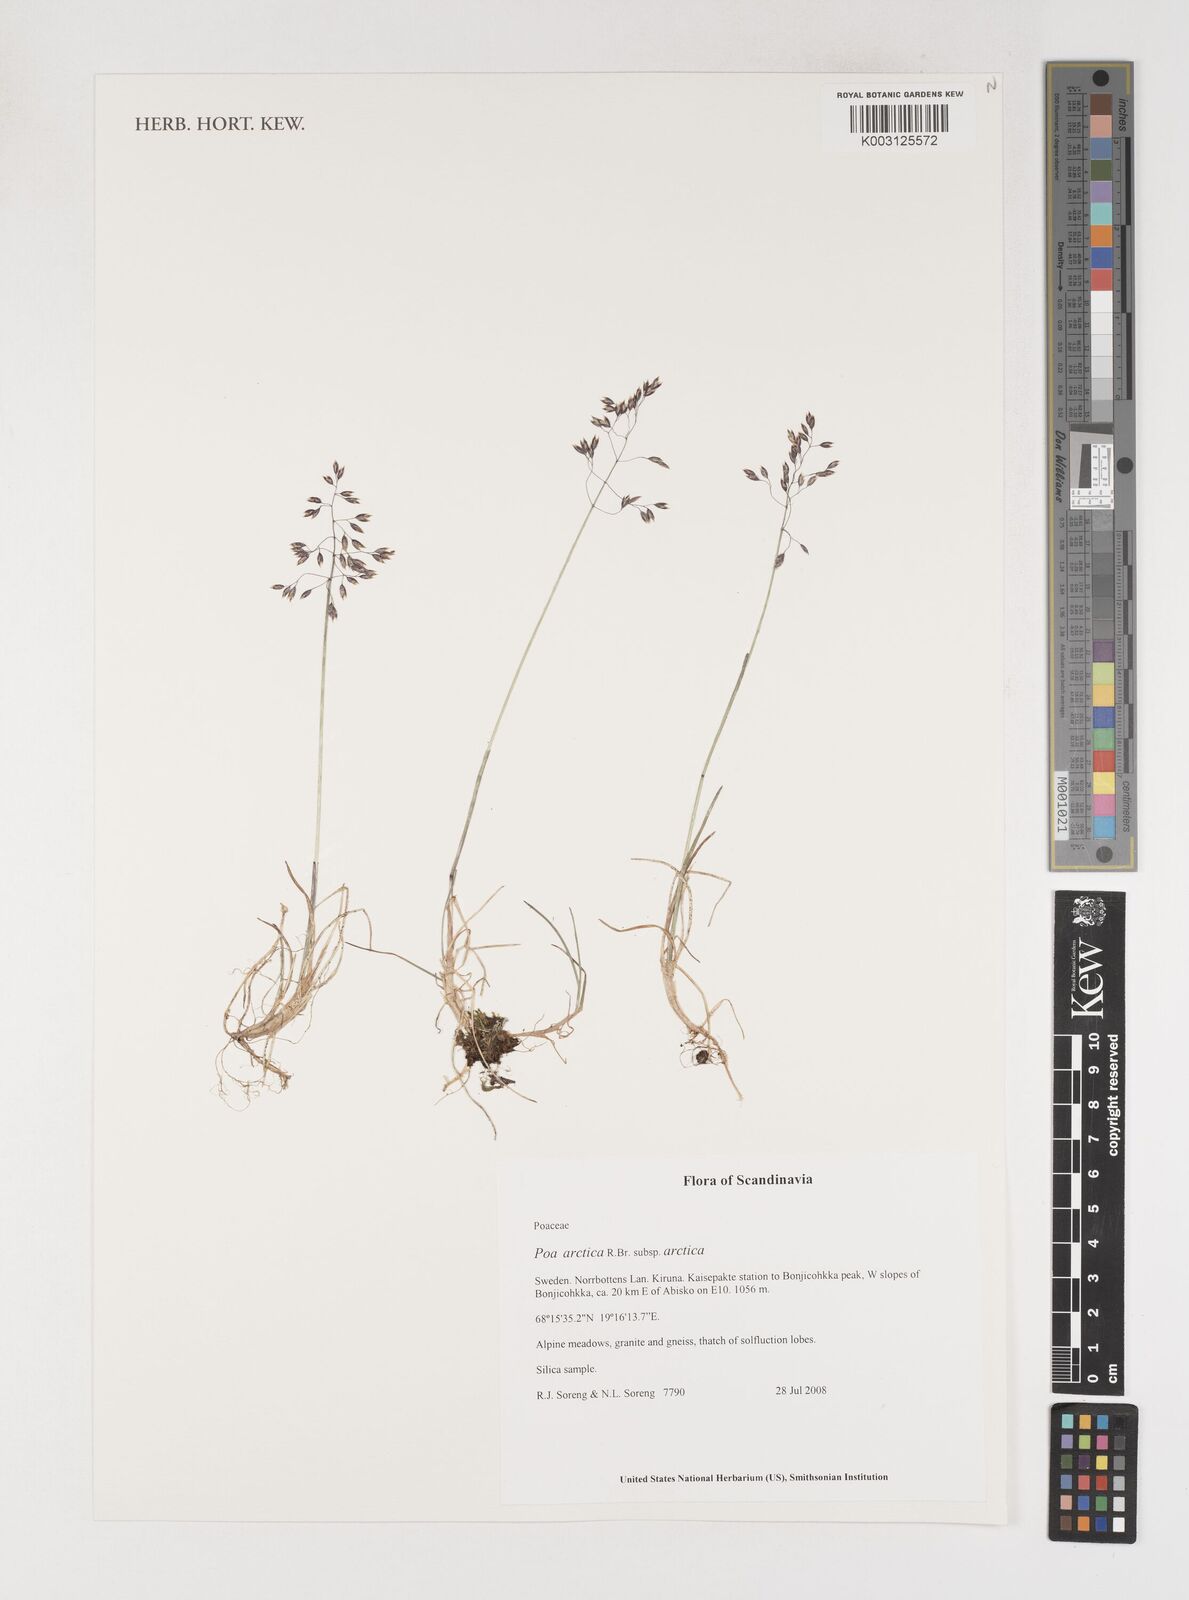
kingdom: Plantae
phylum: Tracheophyta
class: Liliopsida
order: Poales
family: Poaceae
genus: Poa
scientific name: Poa arctica
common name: Arctic bluegrass
